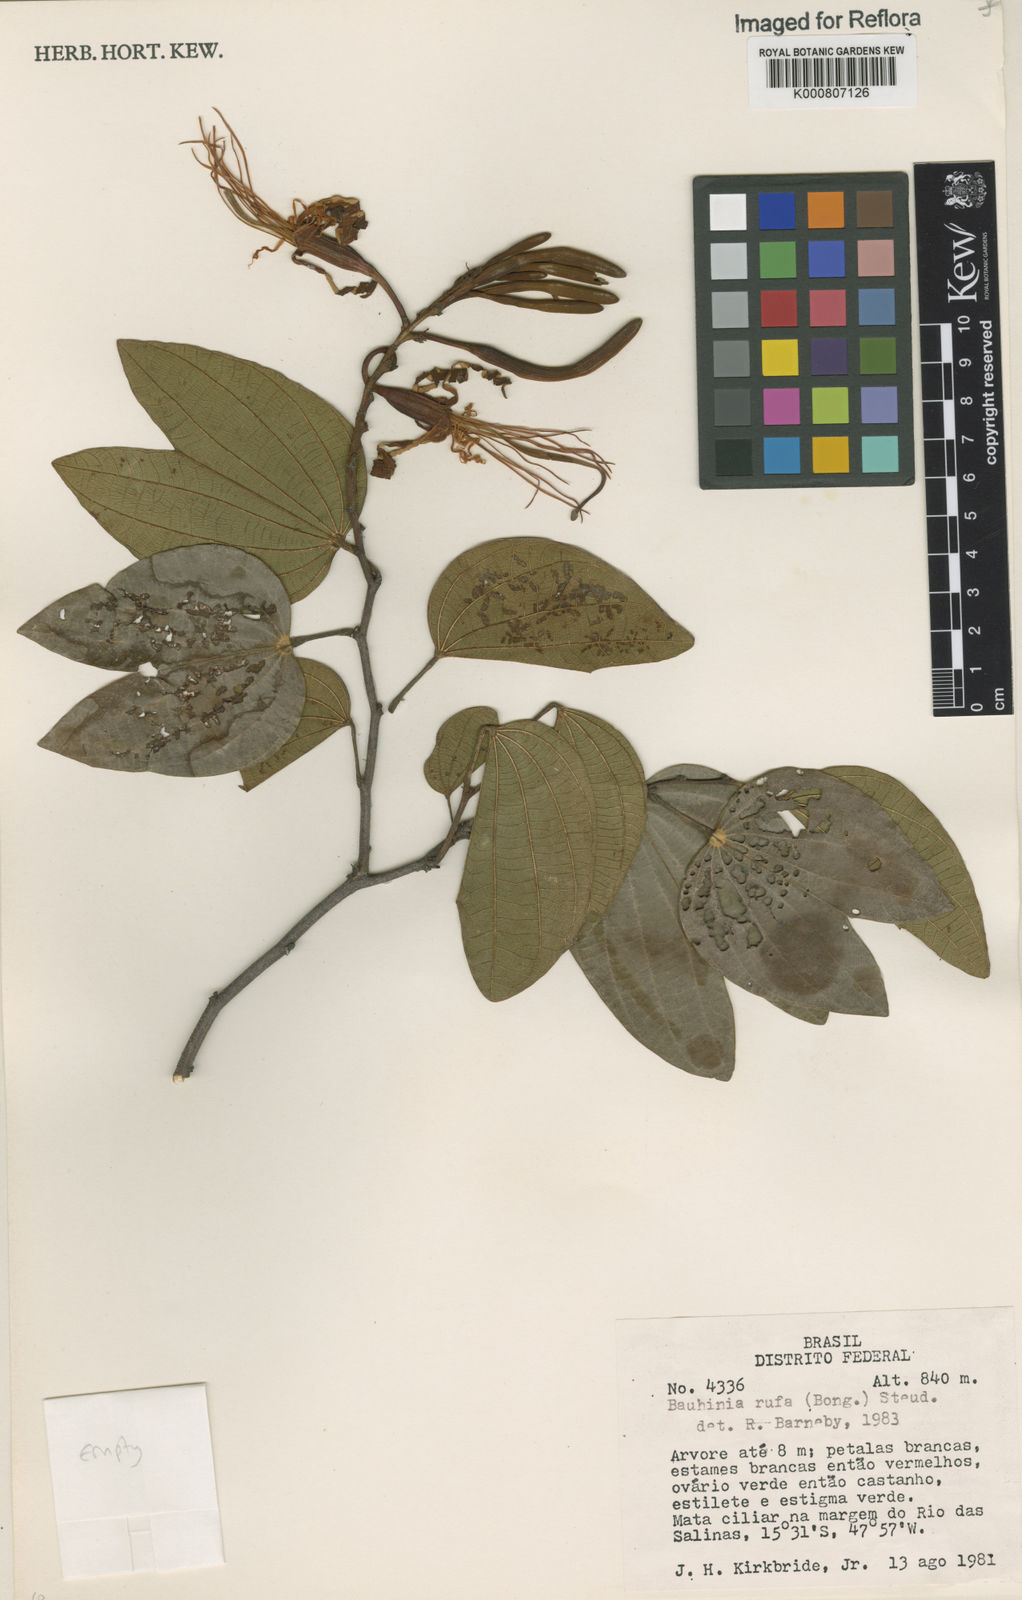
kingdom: Plantae
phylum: Tracheophyta
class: Magnoliopsida
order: Fabales
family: Fabaceae
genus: Bauhinia
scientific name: Bauhinia rufa
